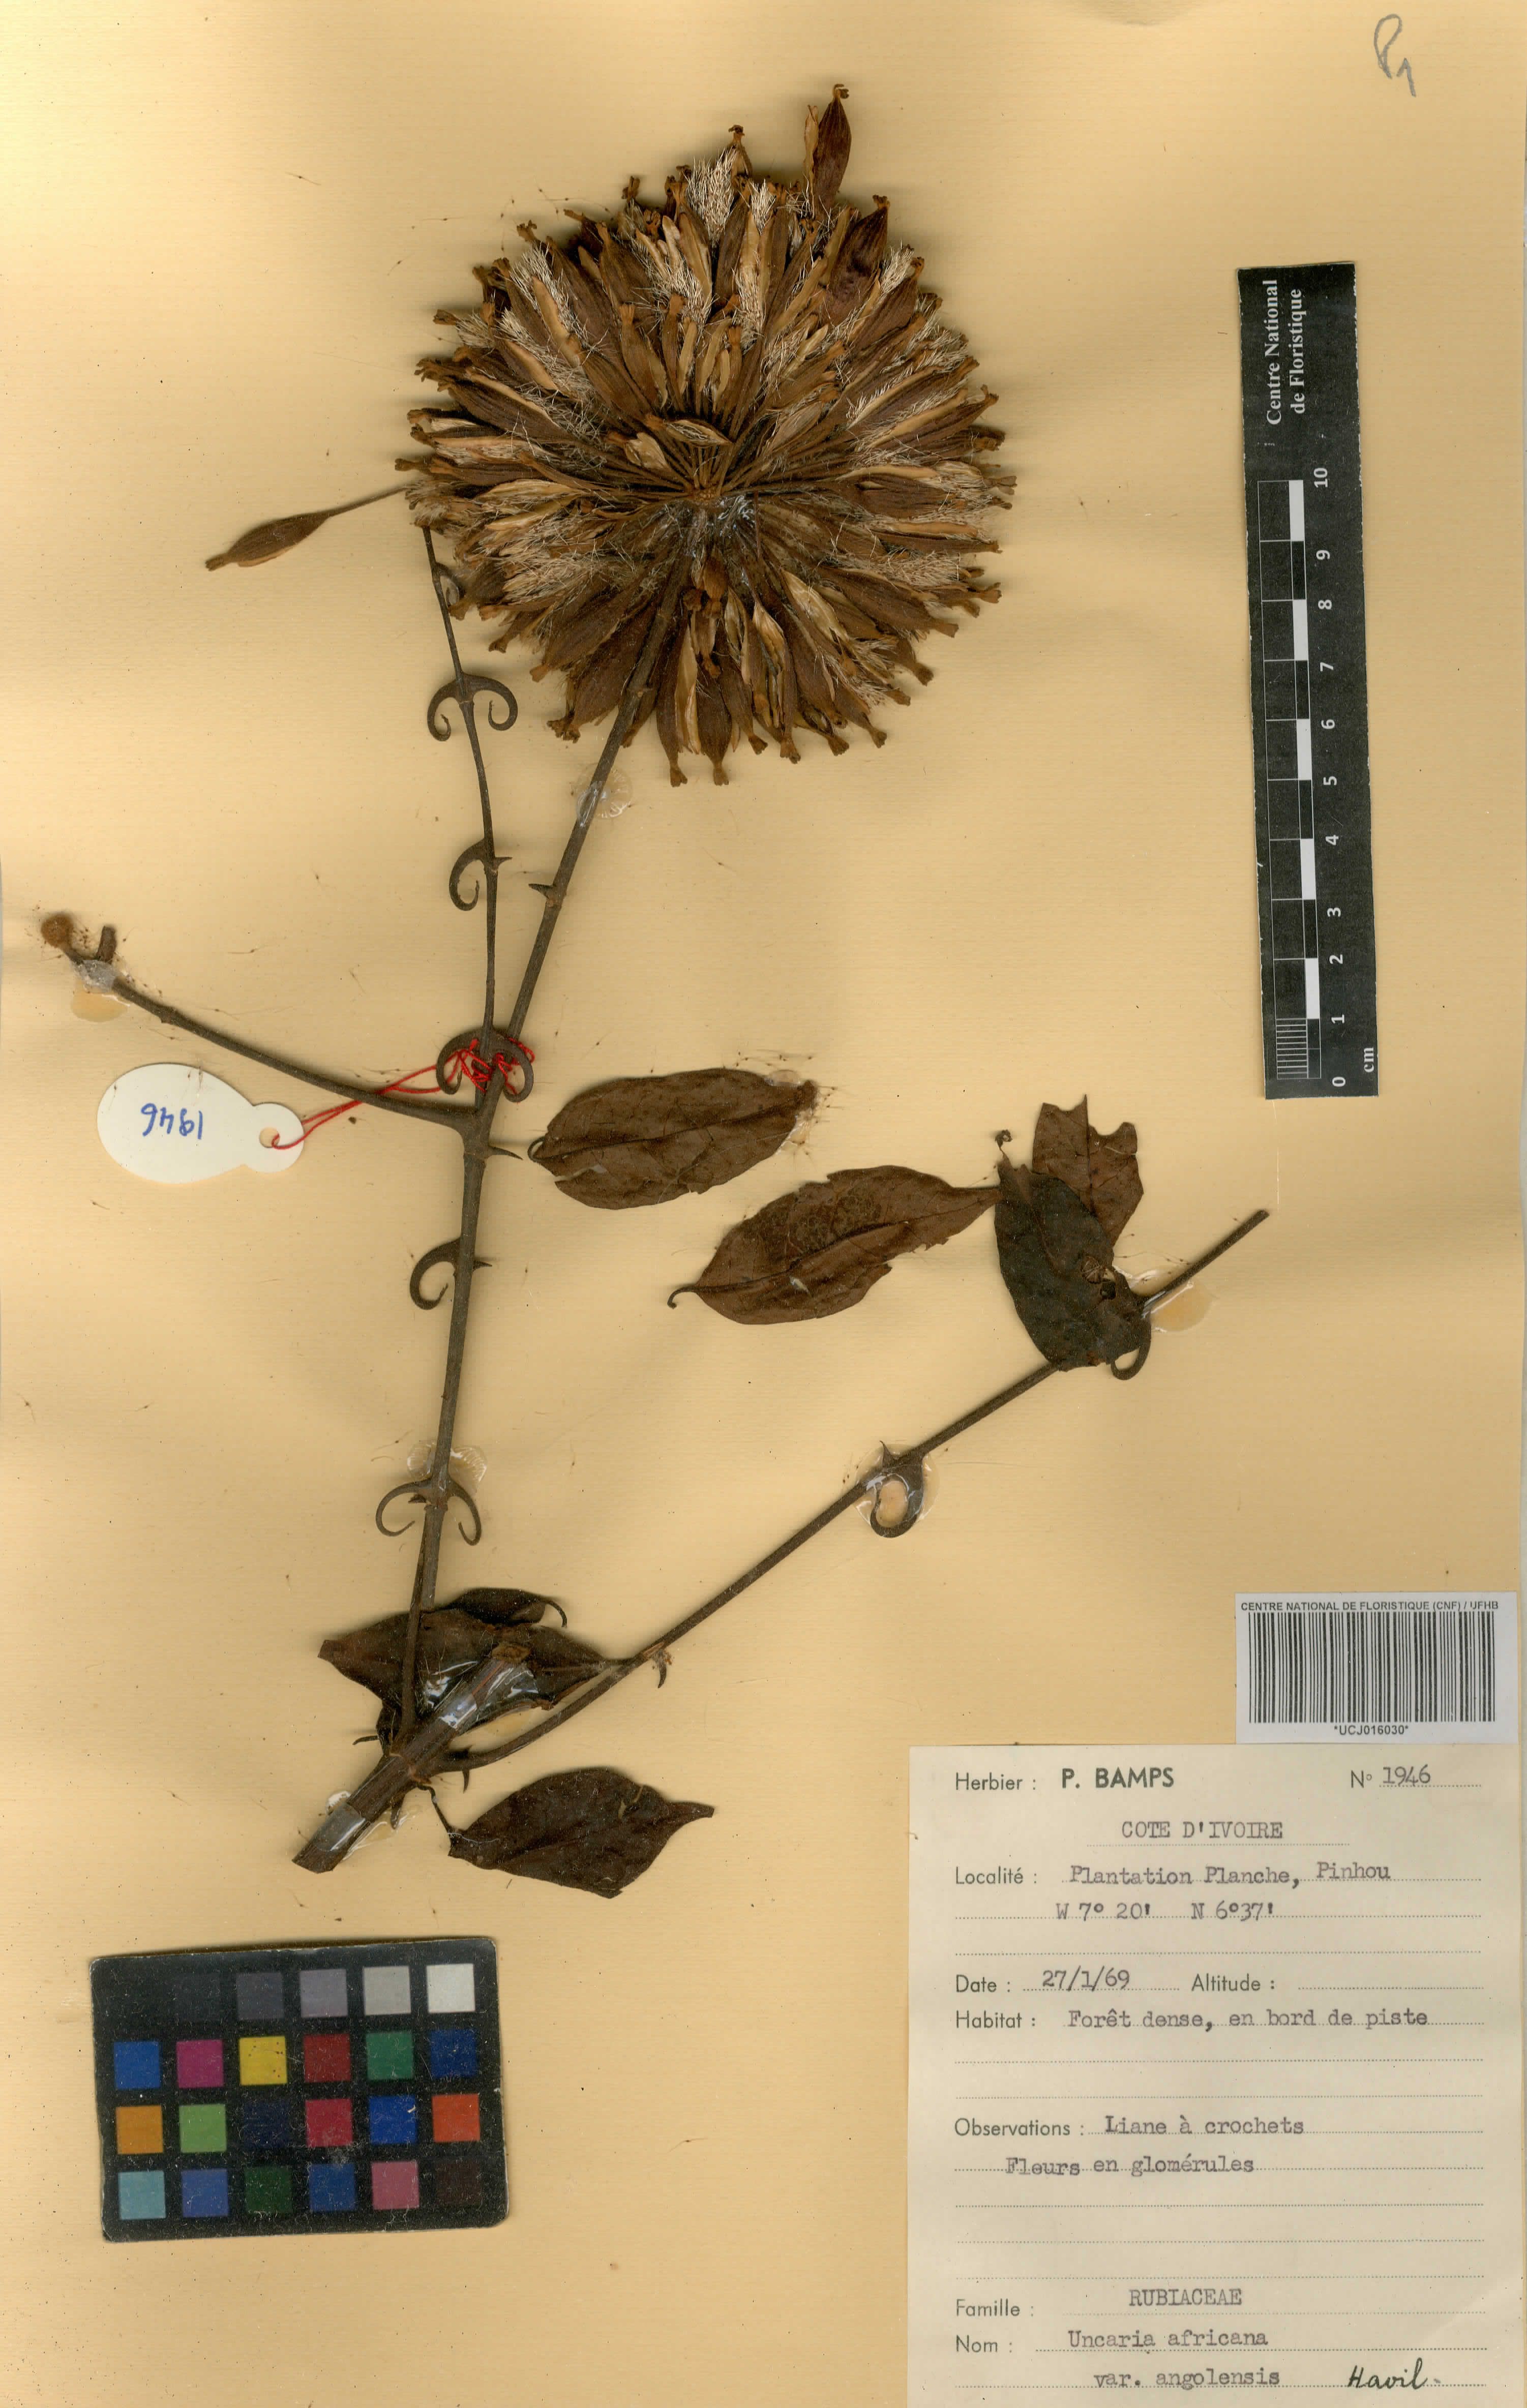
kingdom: Plantae
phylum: Tracheophyta
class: Magnoliopsida
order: Gentianales
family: Rubiaceae
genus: Uncaria
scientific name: Uncaria angolensis
